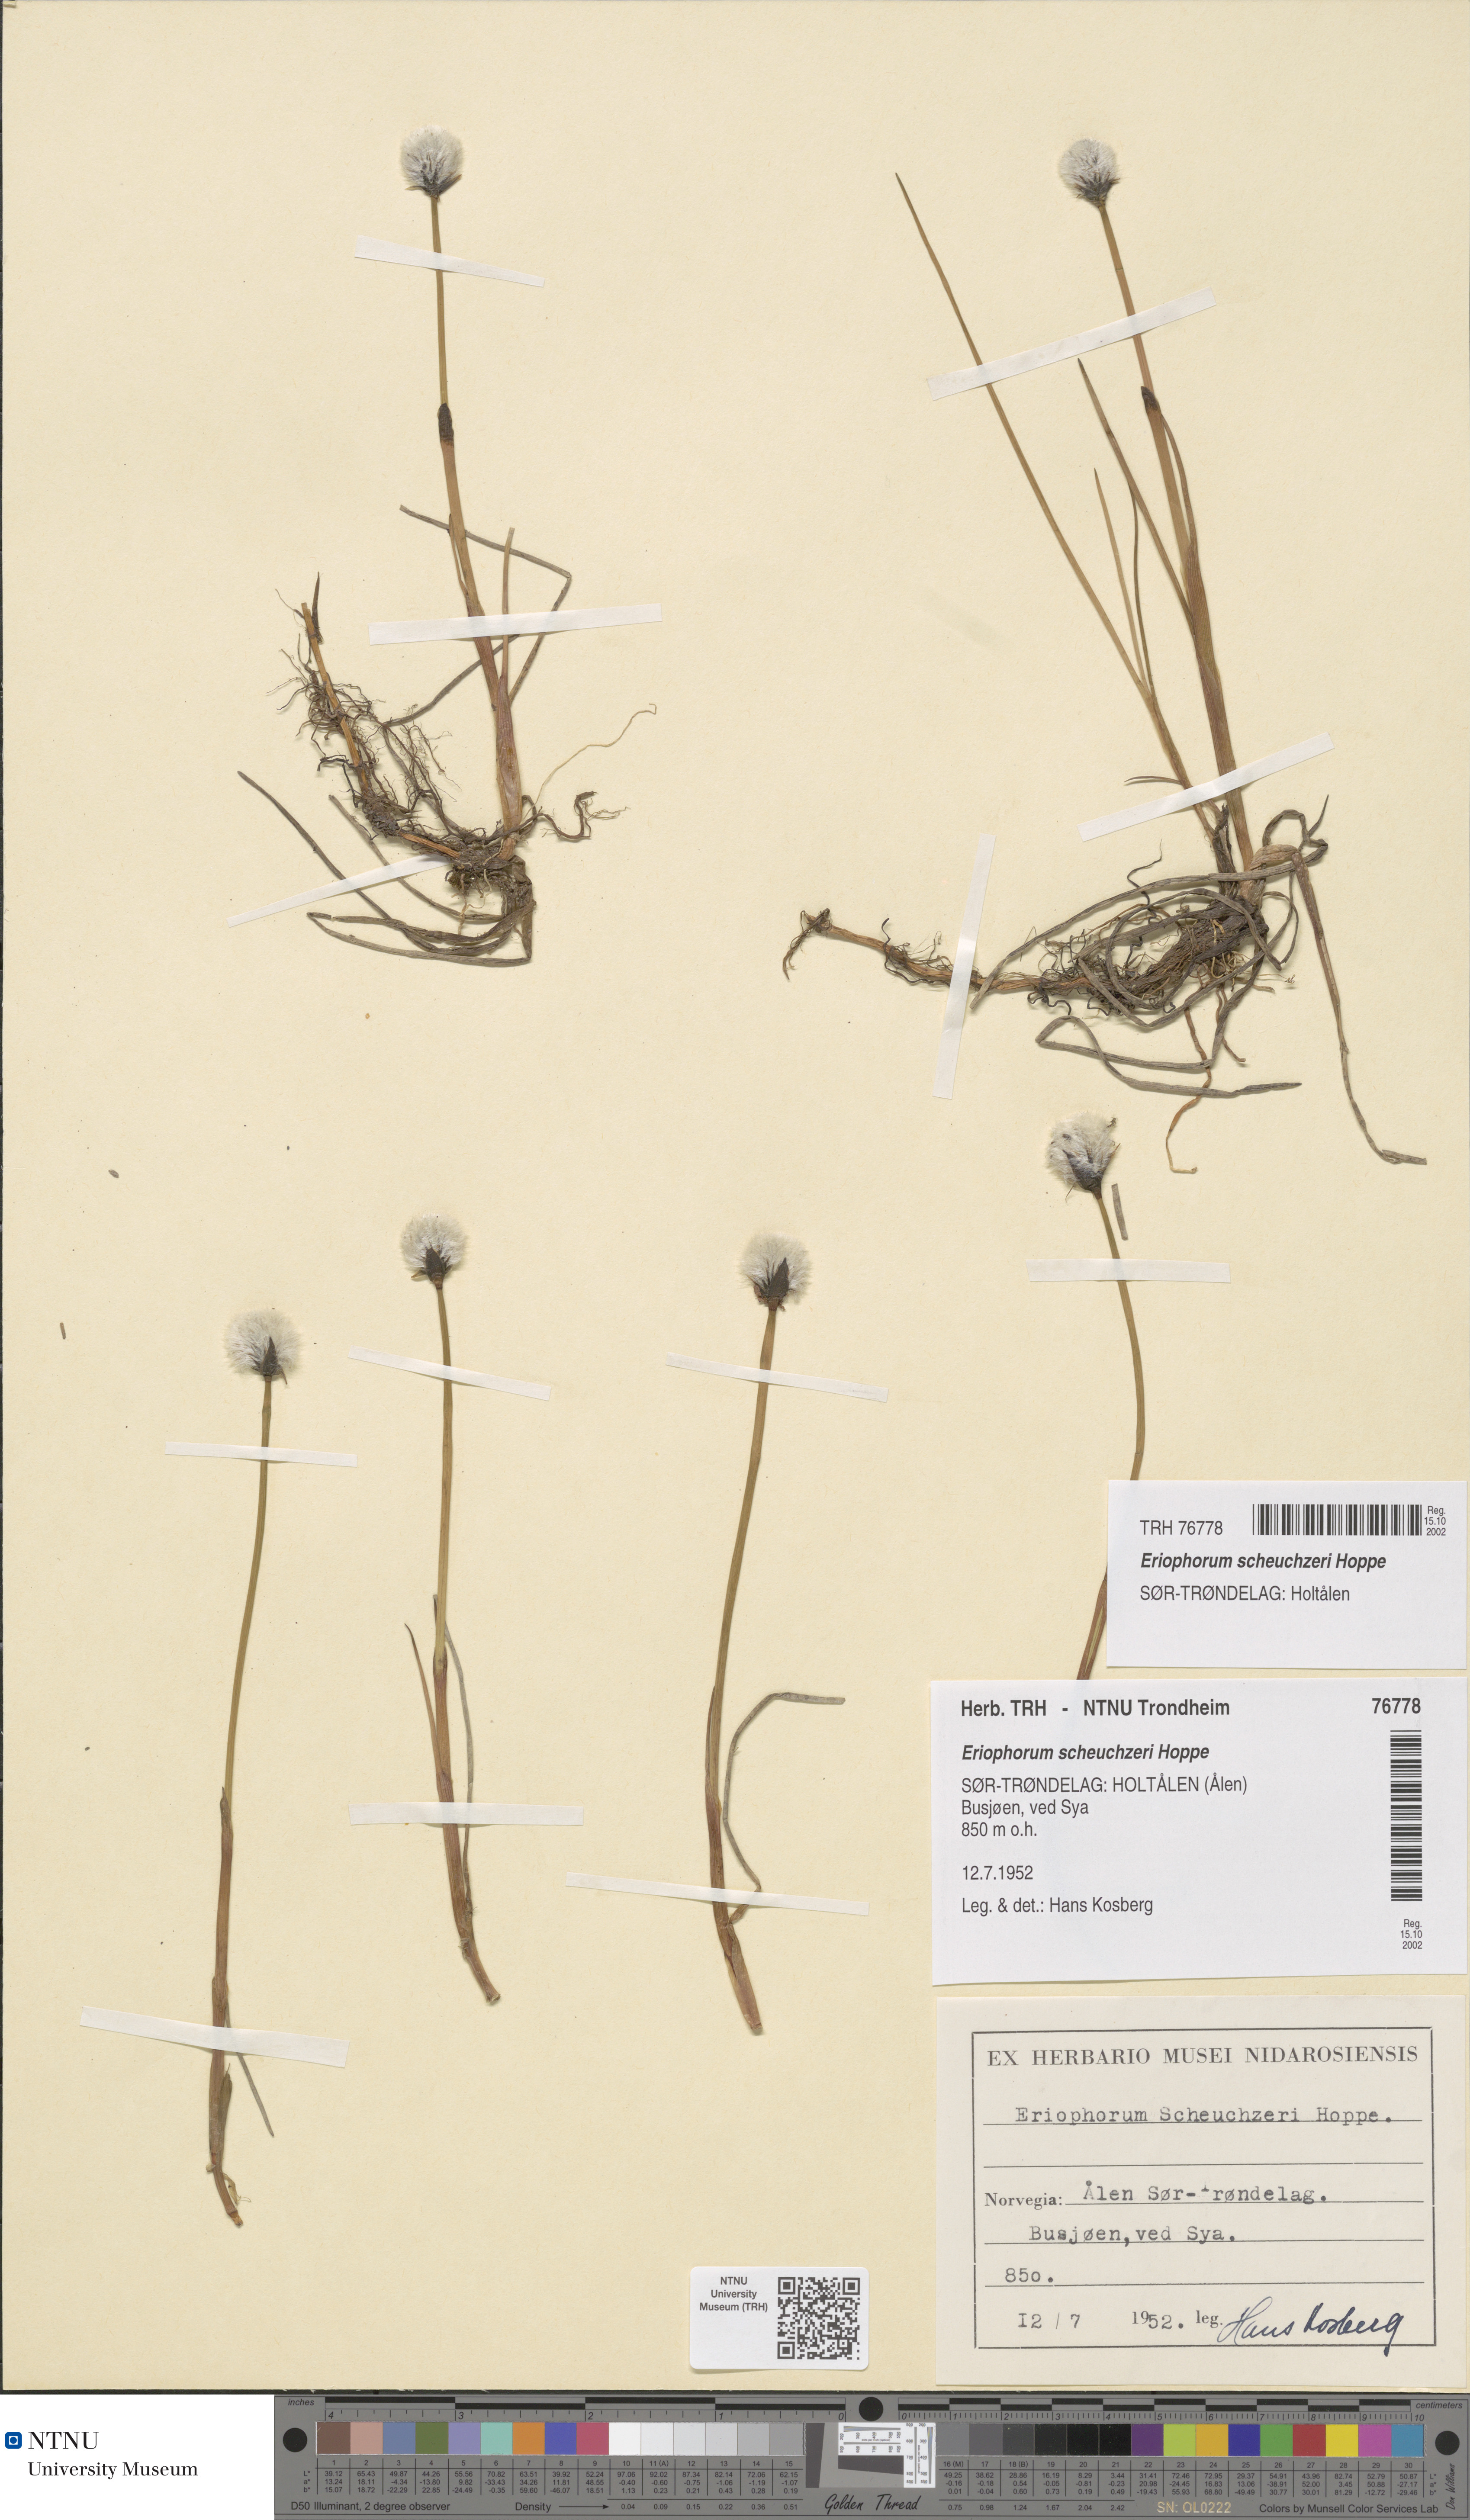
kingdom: Plantae
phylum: Tracheophyta
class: Liliopsida
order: Poales
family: Cyperaceae
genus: Eriophorum
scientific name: Eriophorum scheuchzeri
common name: Scheuchzer's cottongrass
